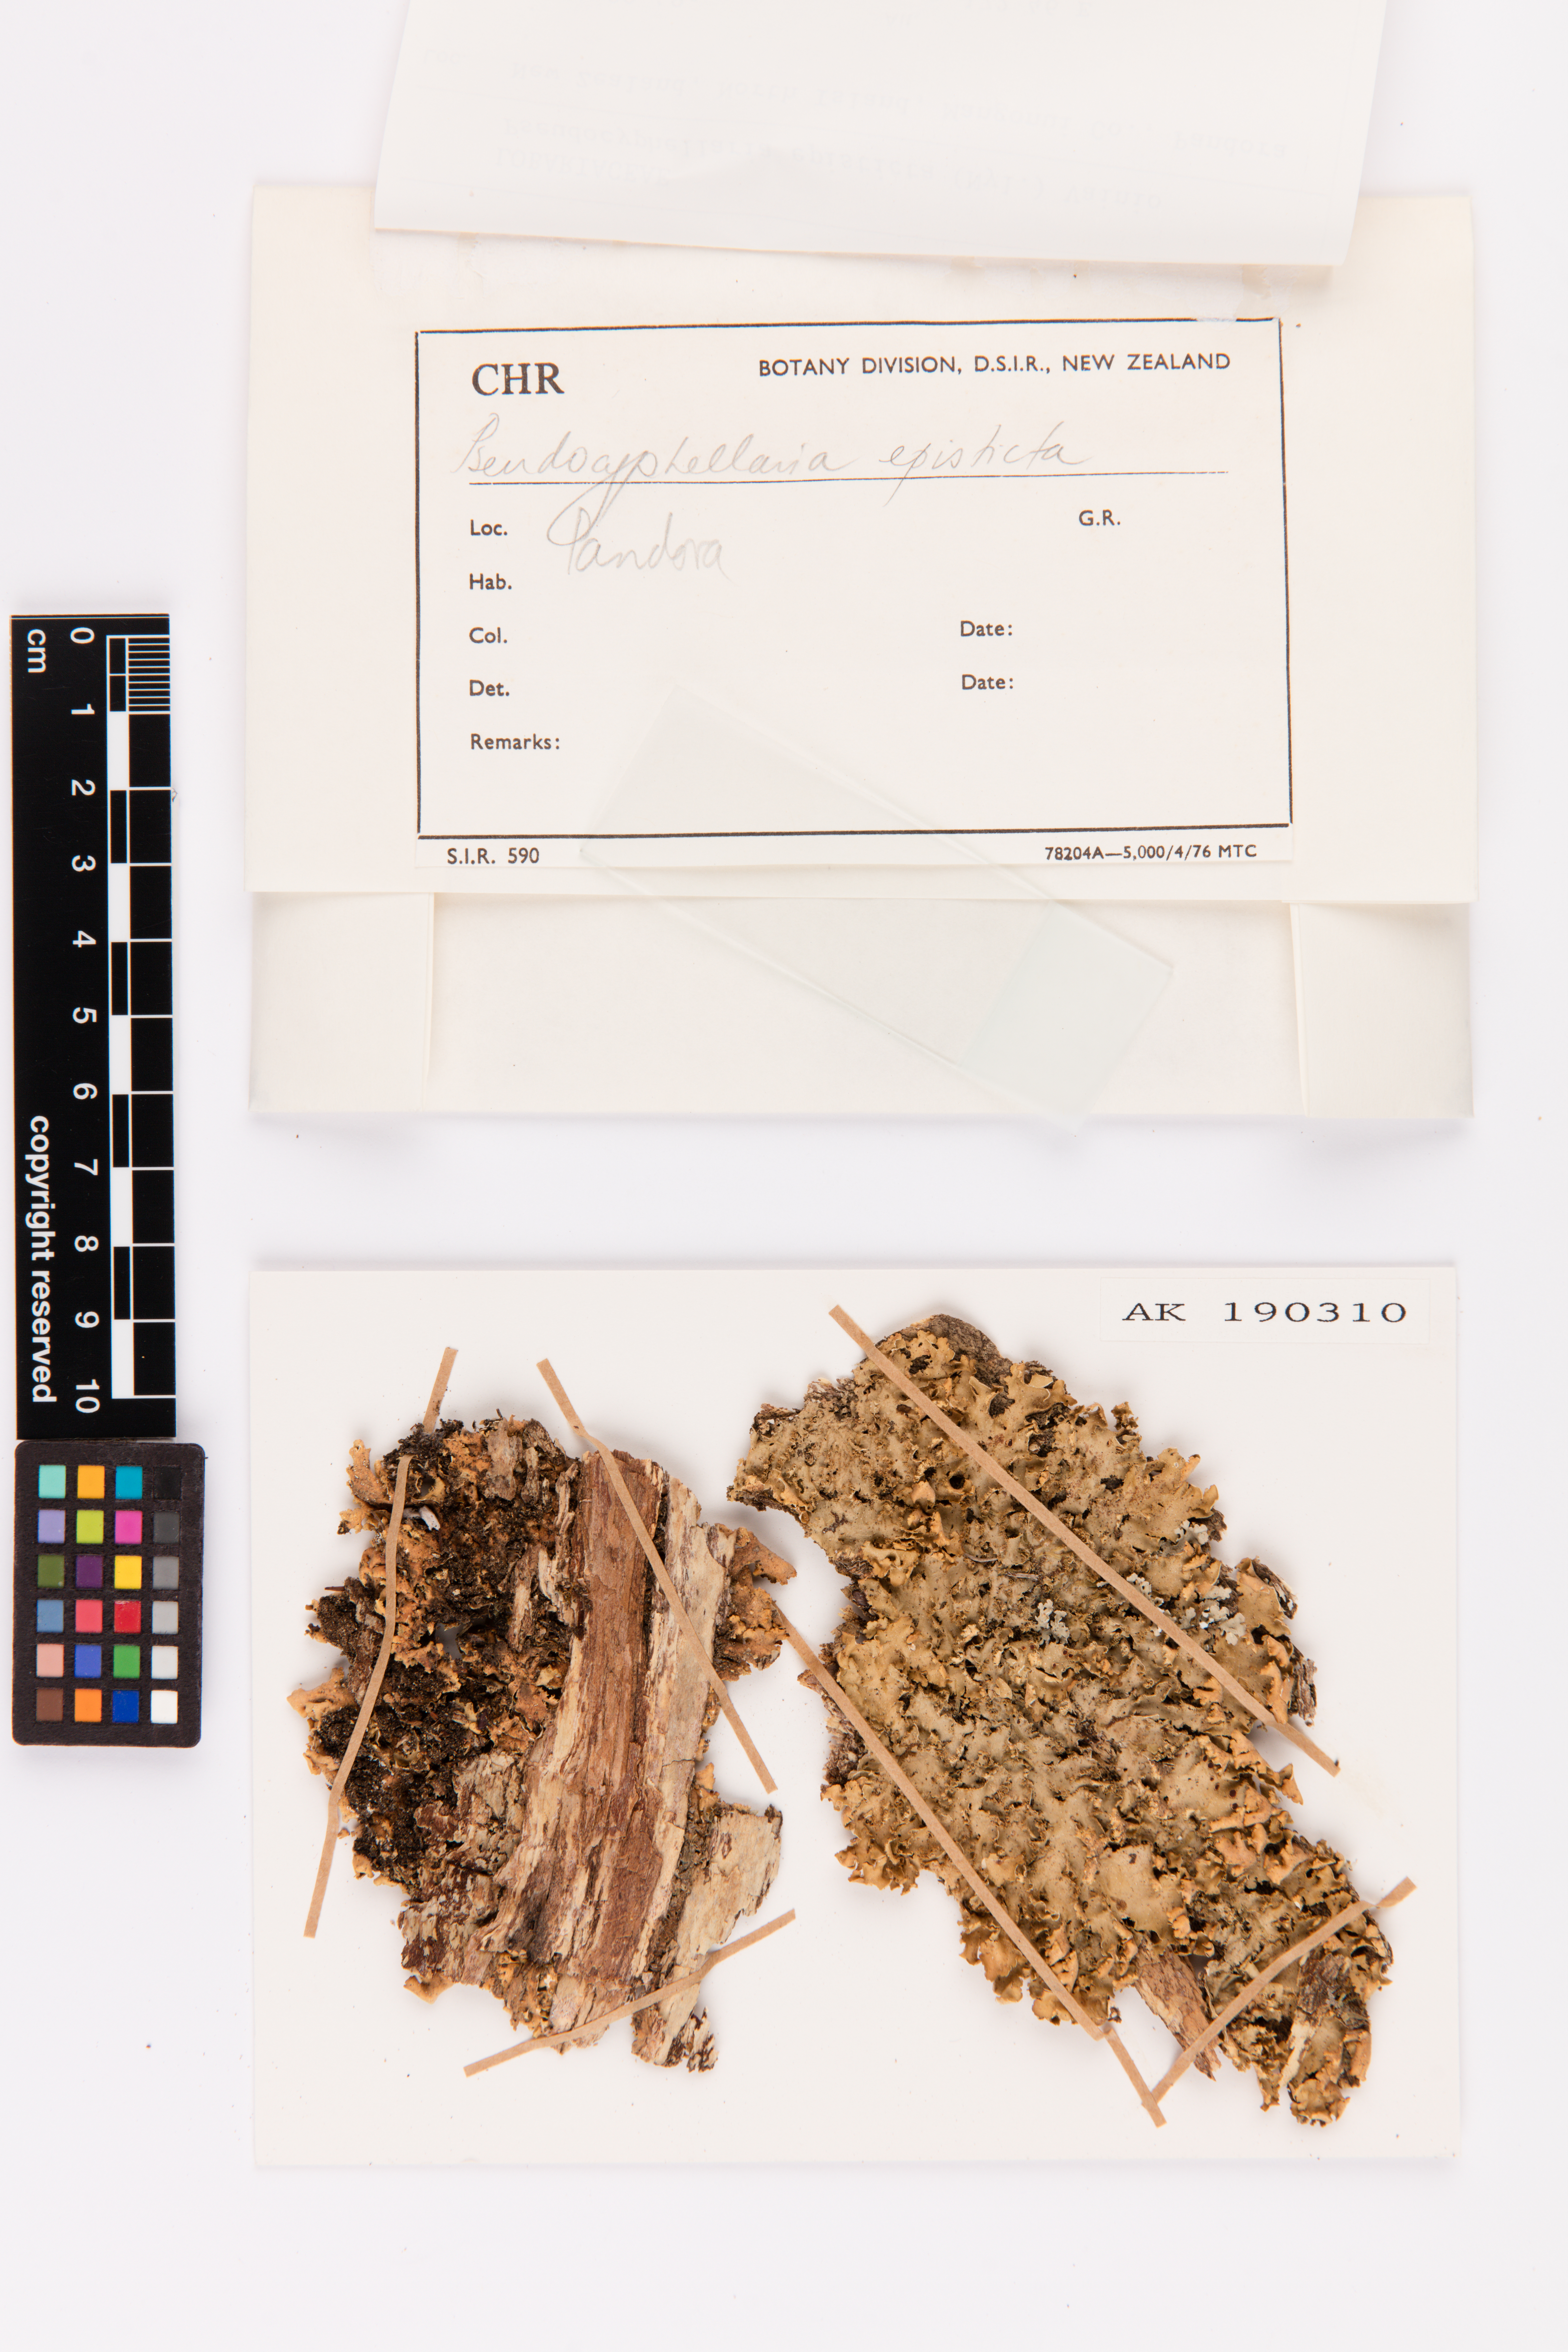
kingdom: Fungi
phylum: Ascomycota
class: Lecanoromycetes
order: Peltigerales
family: Lobariaceae
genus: Pseudocyphellaria
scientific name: Pseudocyphellaria episticta
